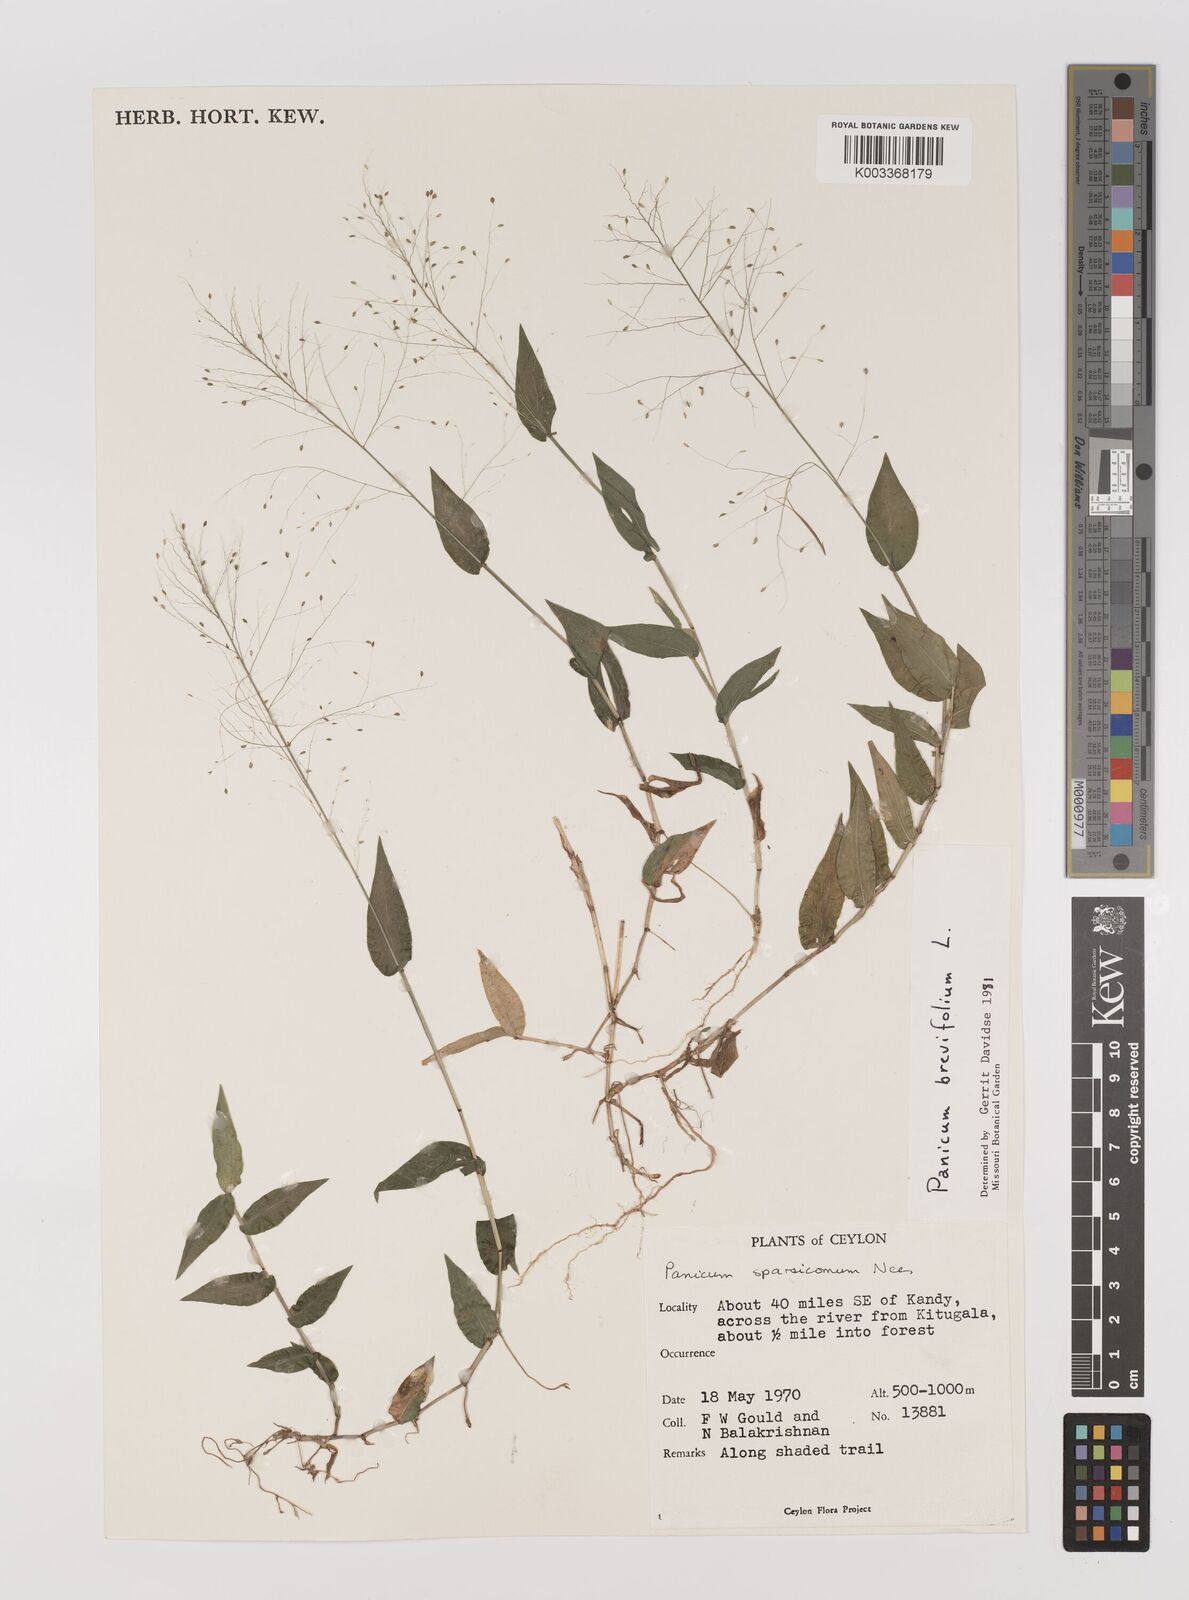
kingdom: Plantae
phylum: Tracheophyta
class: Liliopsida
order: Poales
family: Poaceae
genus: Panicum
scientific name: Panicum brevifolium
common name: Shortleaf panic grass
